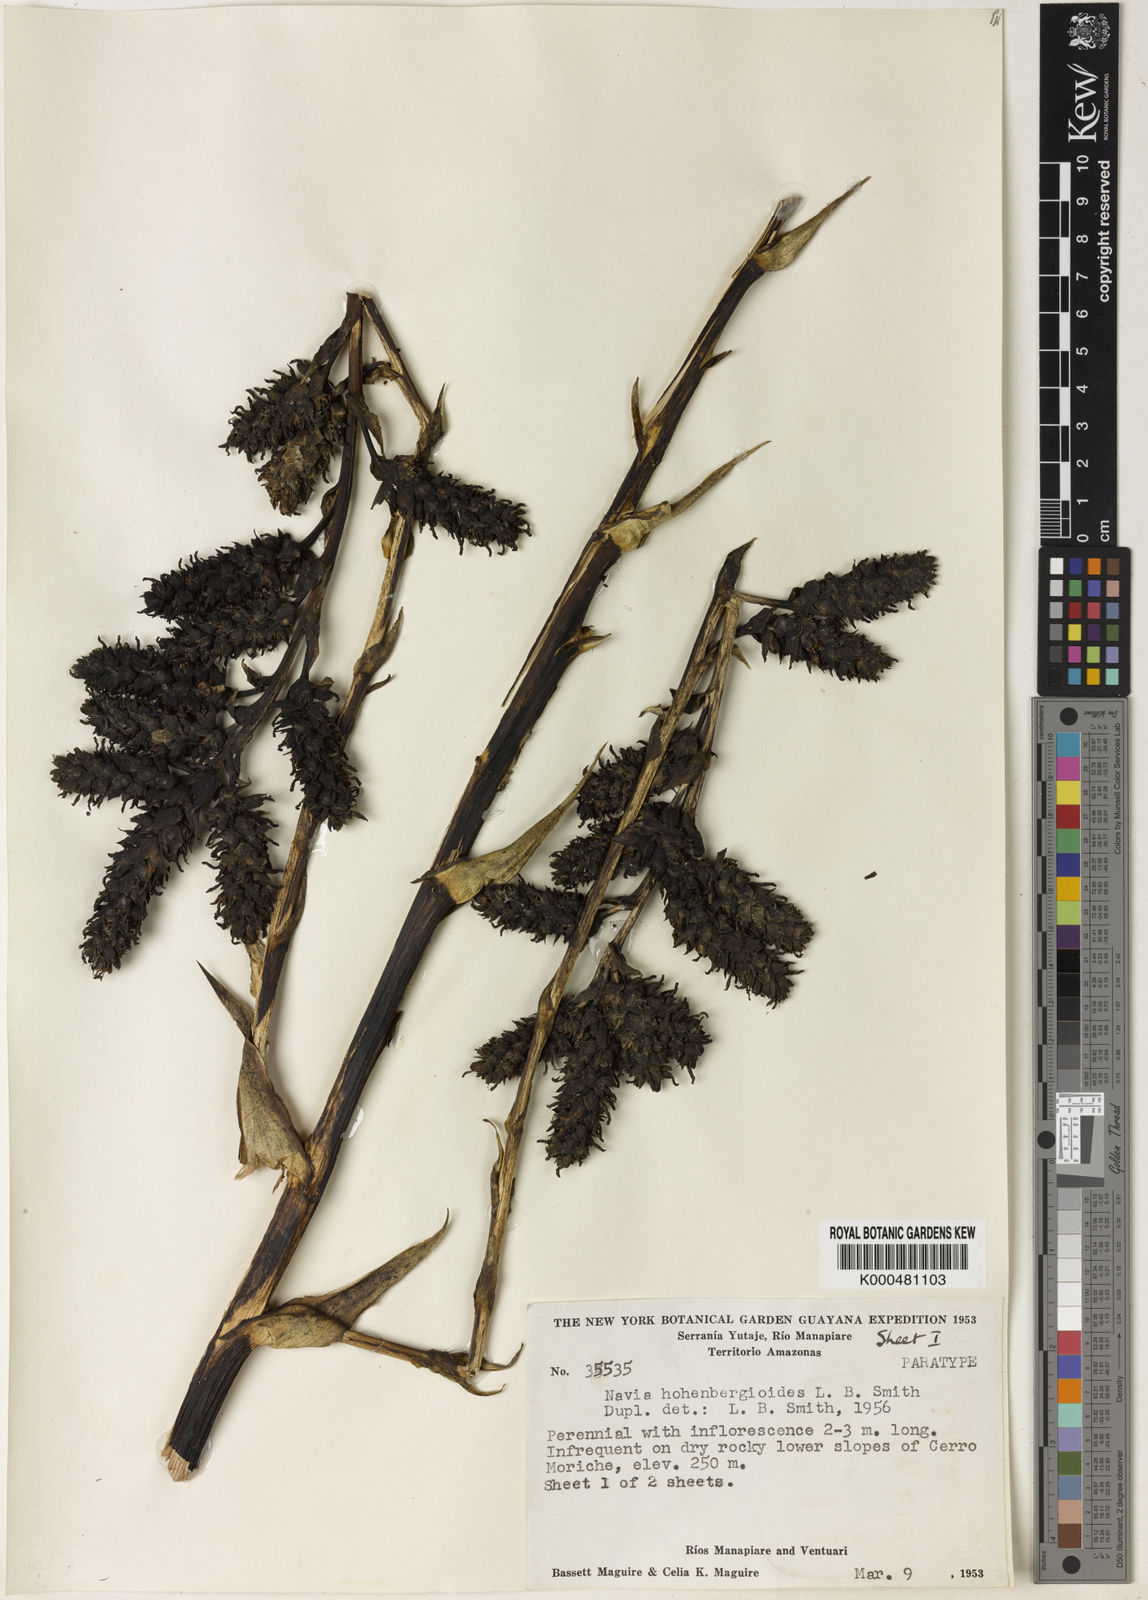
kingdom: Plantae
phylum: Tracheophyta
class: Liliopsida
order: Poales
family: Bromeliaceae
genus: Navia
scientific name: Navia hohenbergioides
